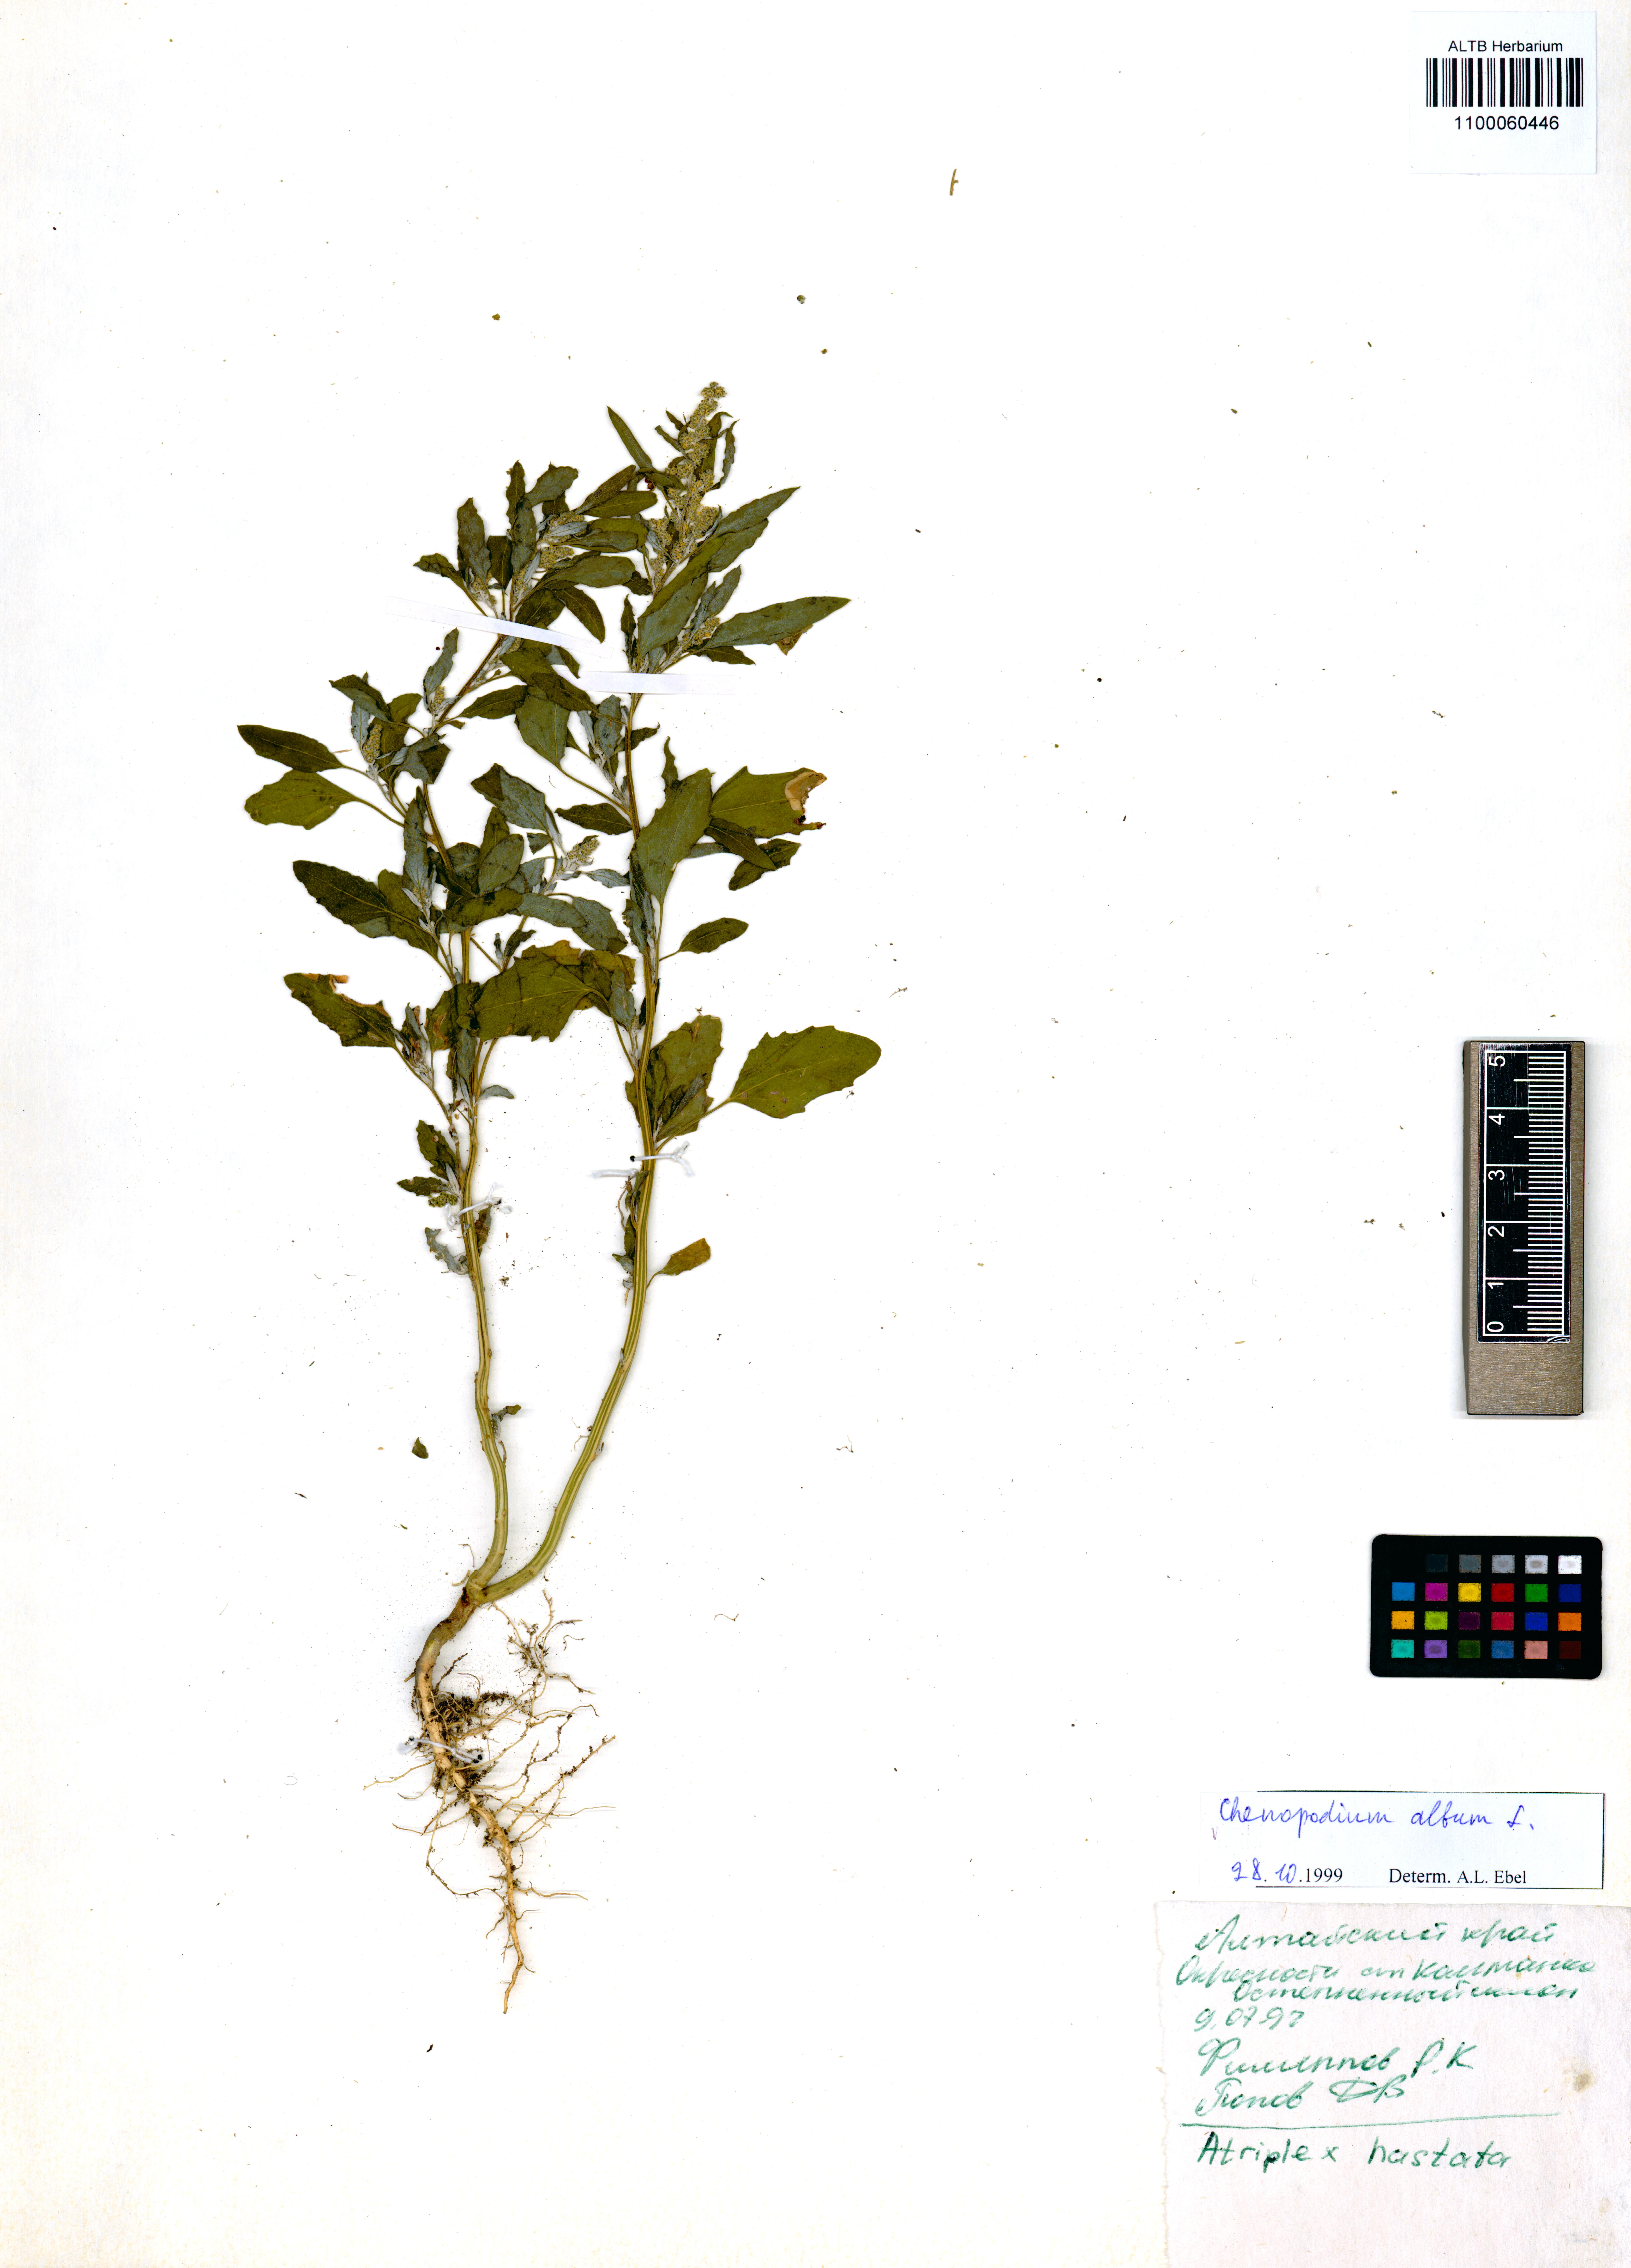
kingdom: Plantae
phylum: Tracheophyta
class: Magnoliopsida
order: Caryophyllales
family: Amaranthaceae
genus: Chenopodium
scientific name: Chenopodium album
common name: Fat-hen
